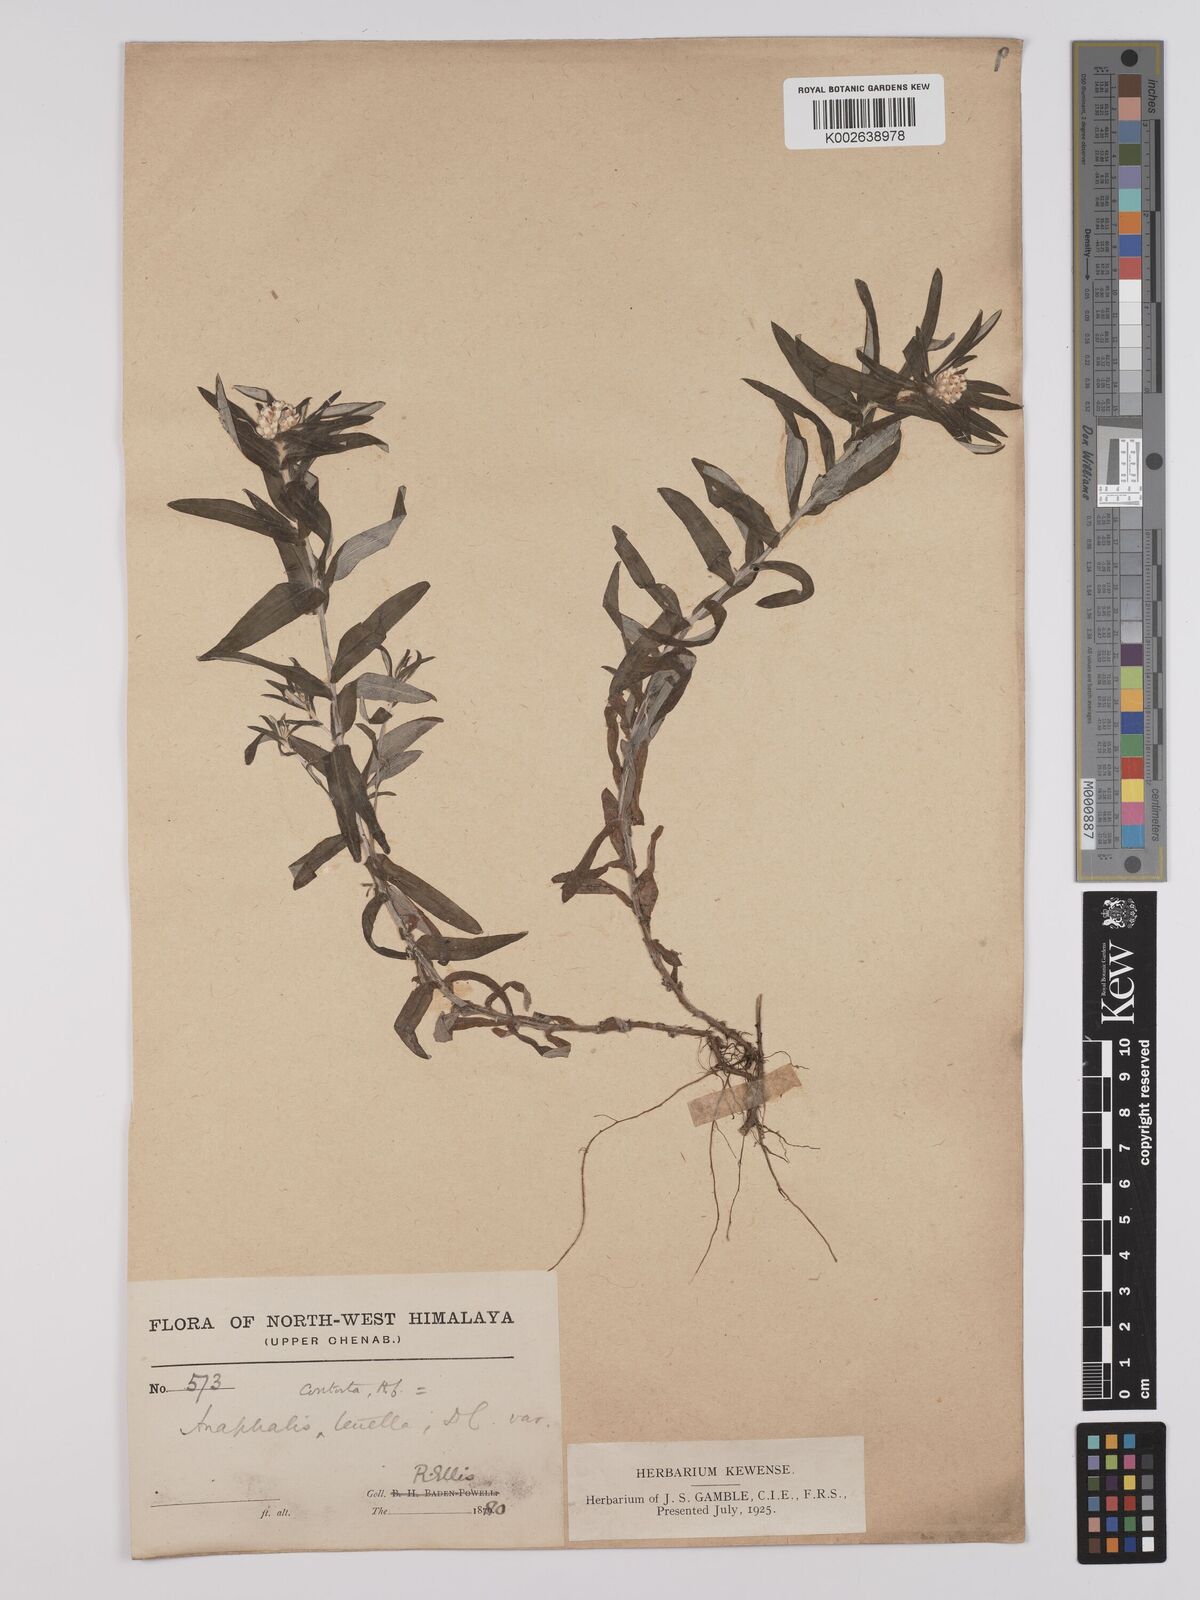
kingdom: Plantae
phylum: Tracheophyta
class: Magnoliopsida
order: Asterales
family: Asteraceae
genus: Anaphalis
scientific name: Anaphalis busua
